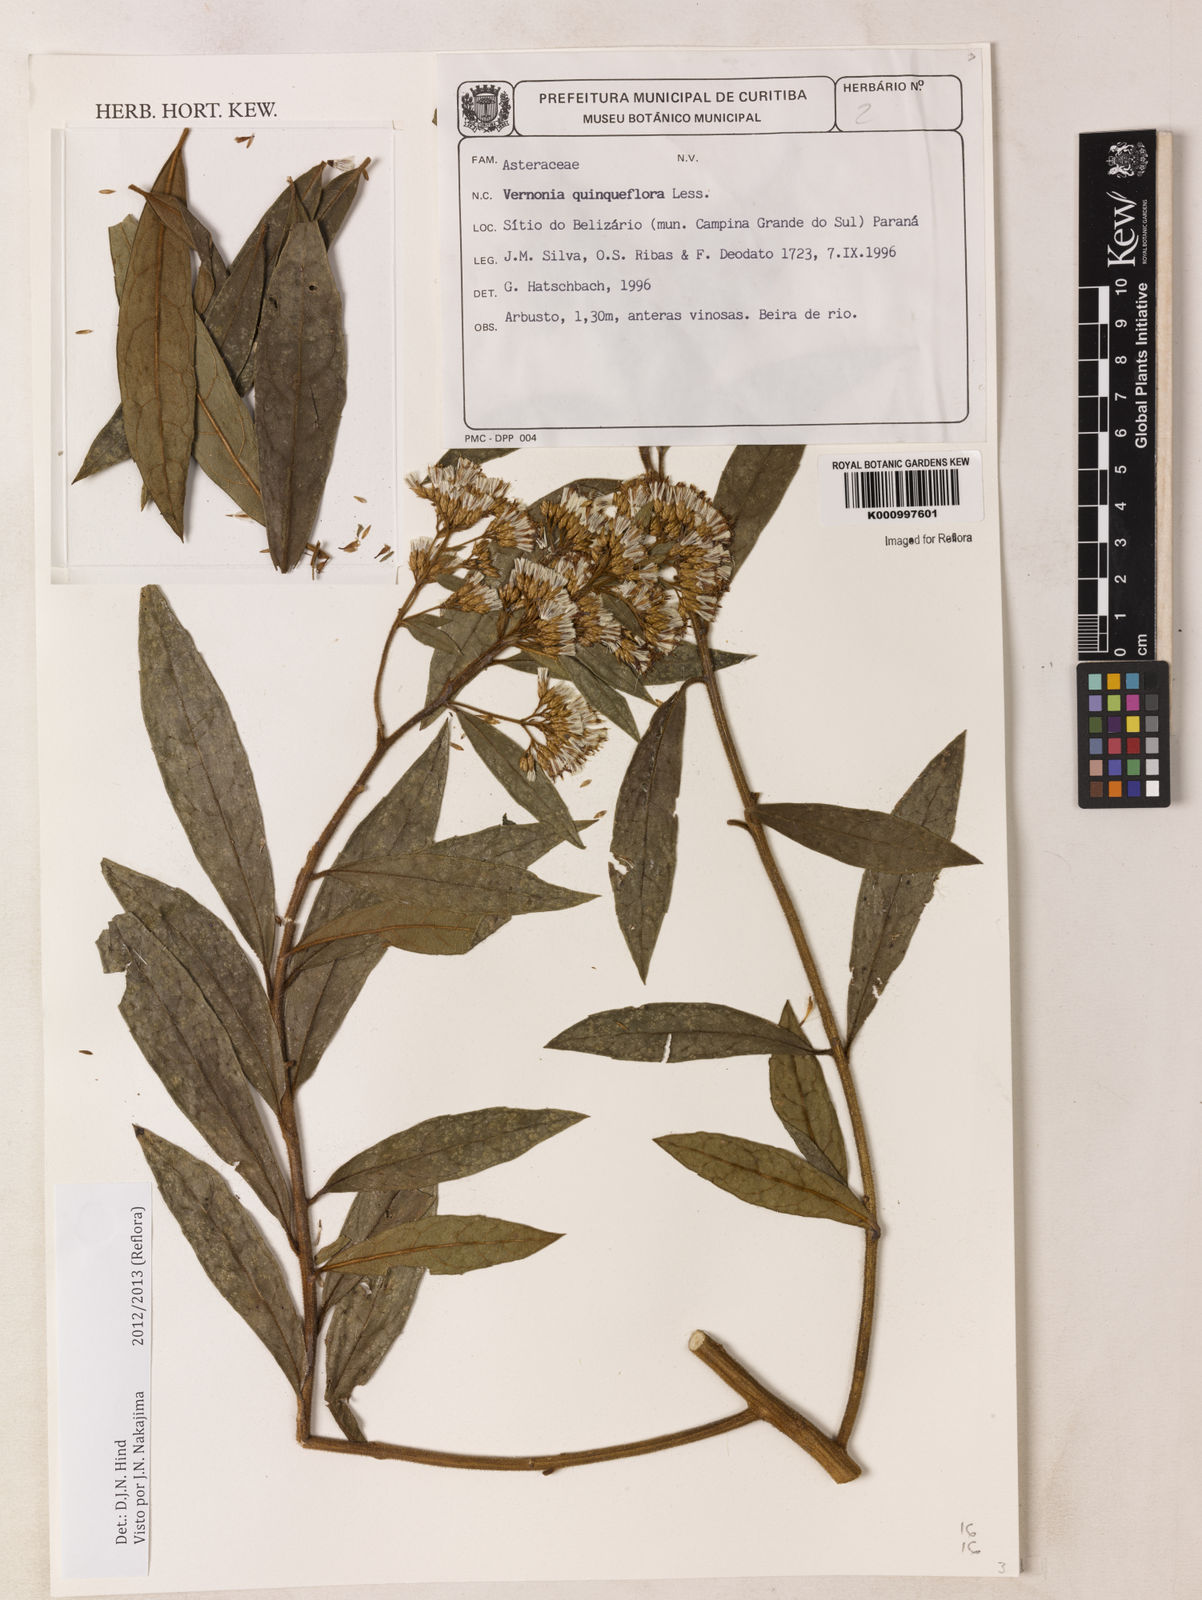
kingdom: Plantae
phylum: Tracheophyta
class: Magnoliopsida
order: Asterales
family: Asteraceae
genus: Critoniopsis
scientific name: Critoniopsis quinqueflora
